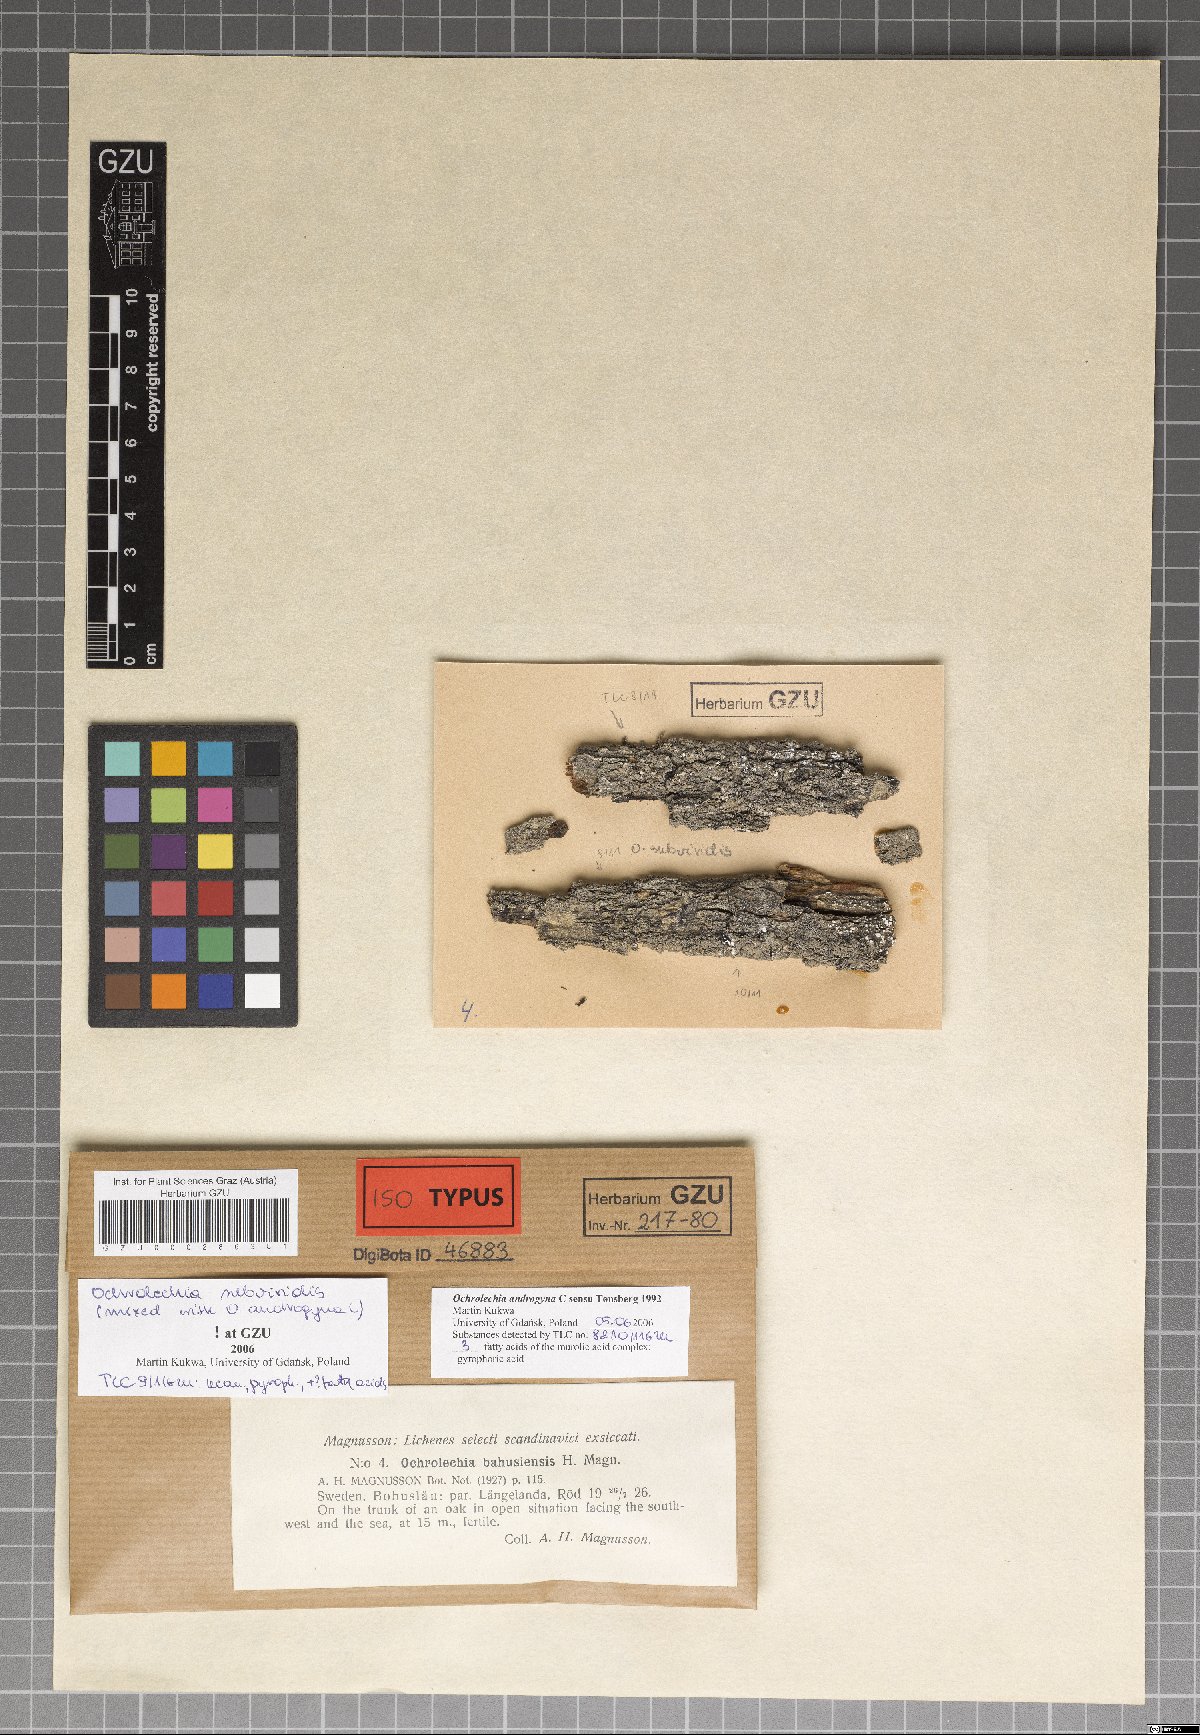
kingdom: Fungi
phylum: Ascomycota
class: Lecanoromycetes
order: Pertusariales
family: Ochrolechiaceae
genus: Ochrolechia
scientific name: Ochrolechia subviridis
